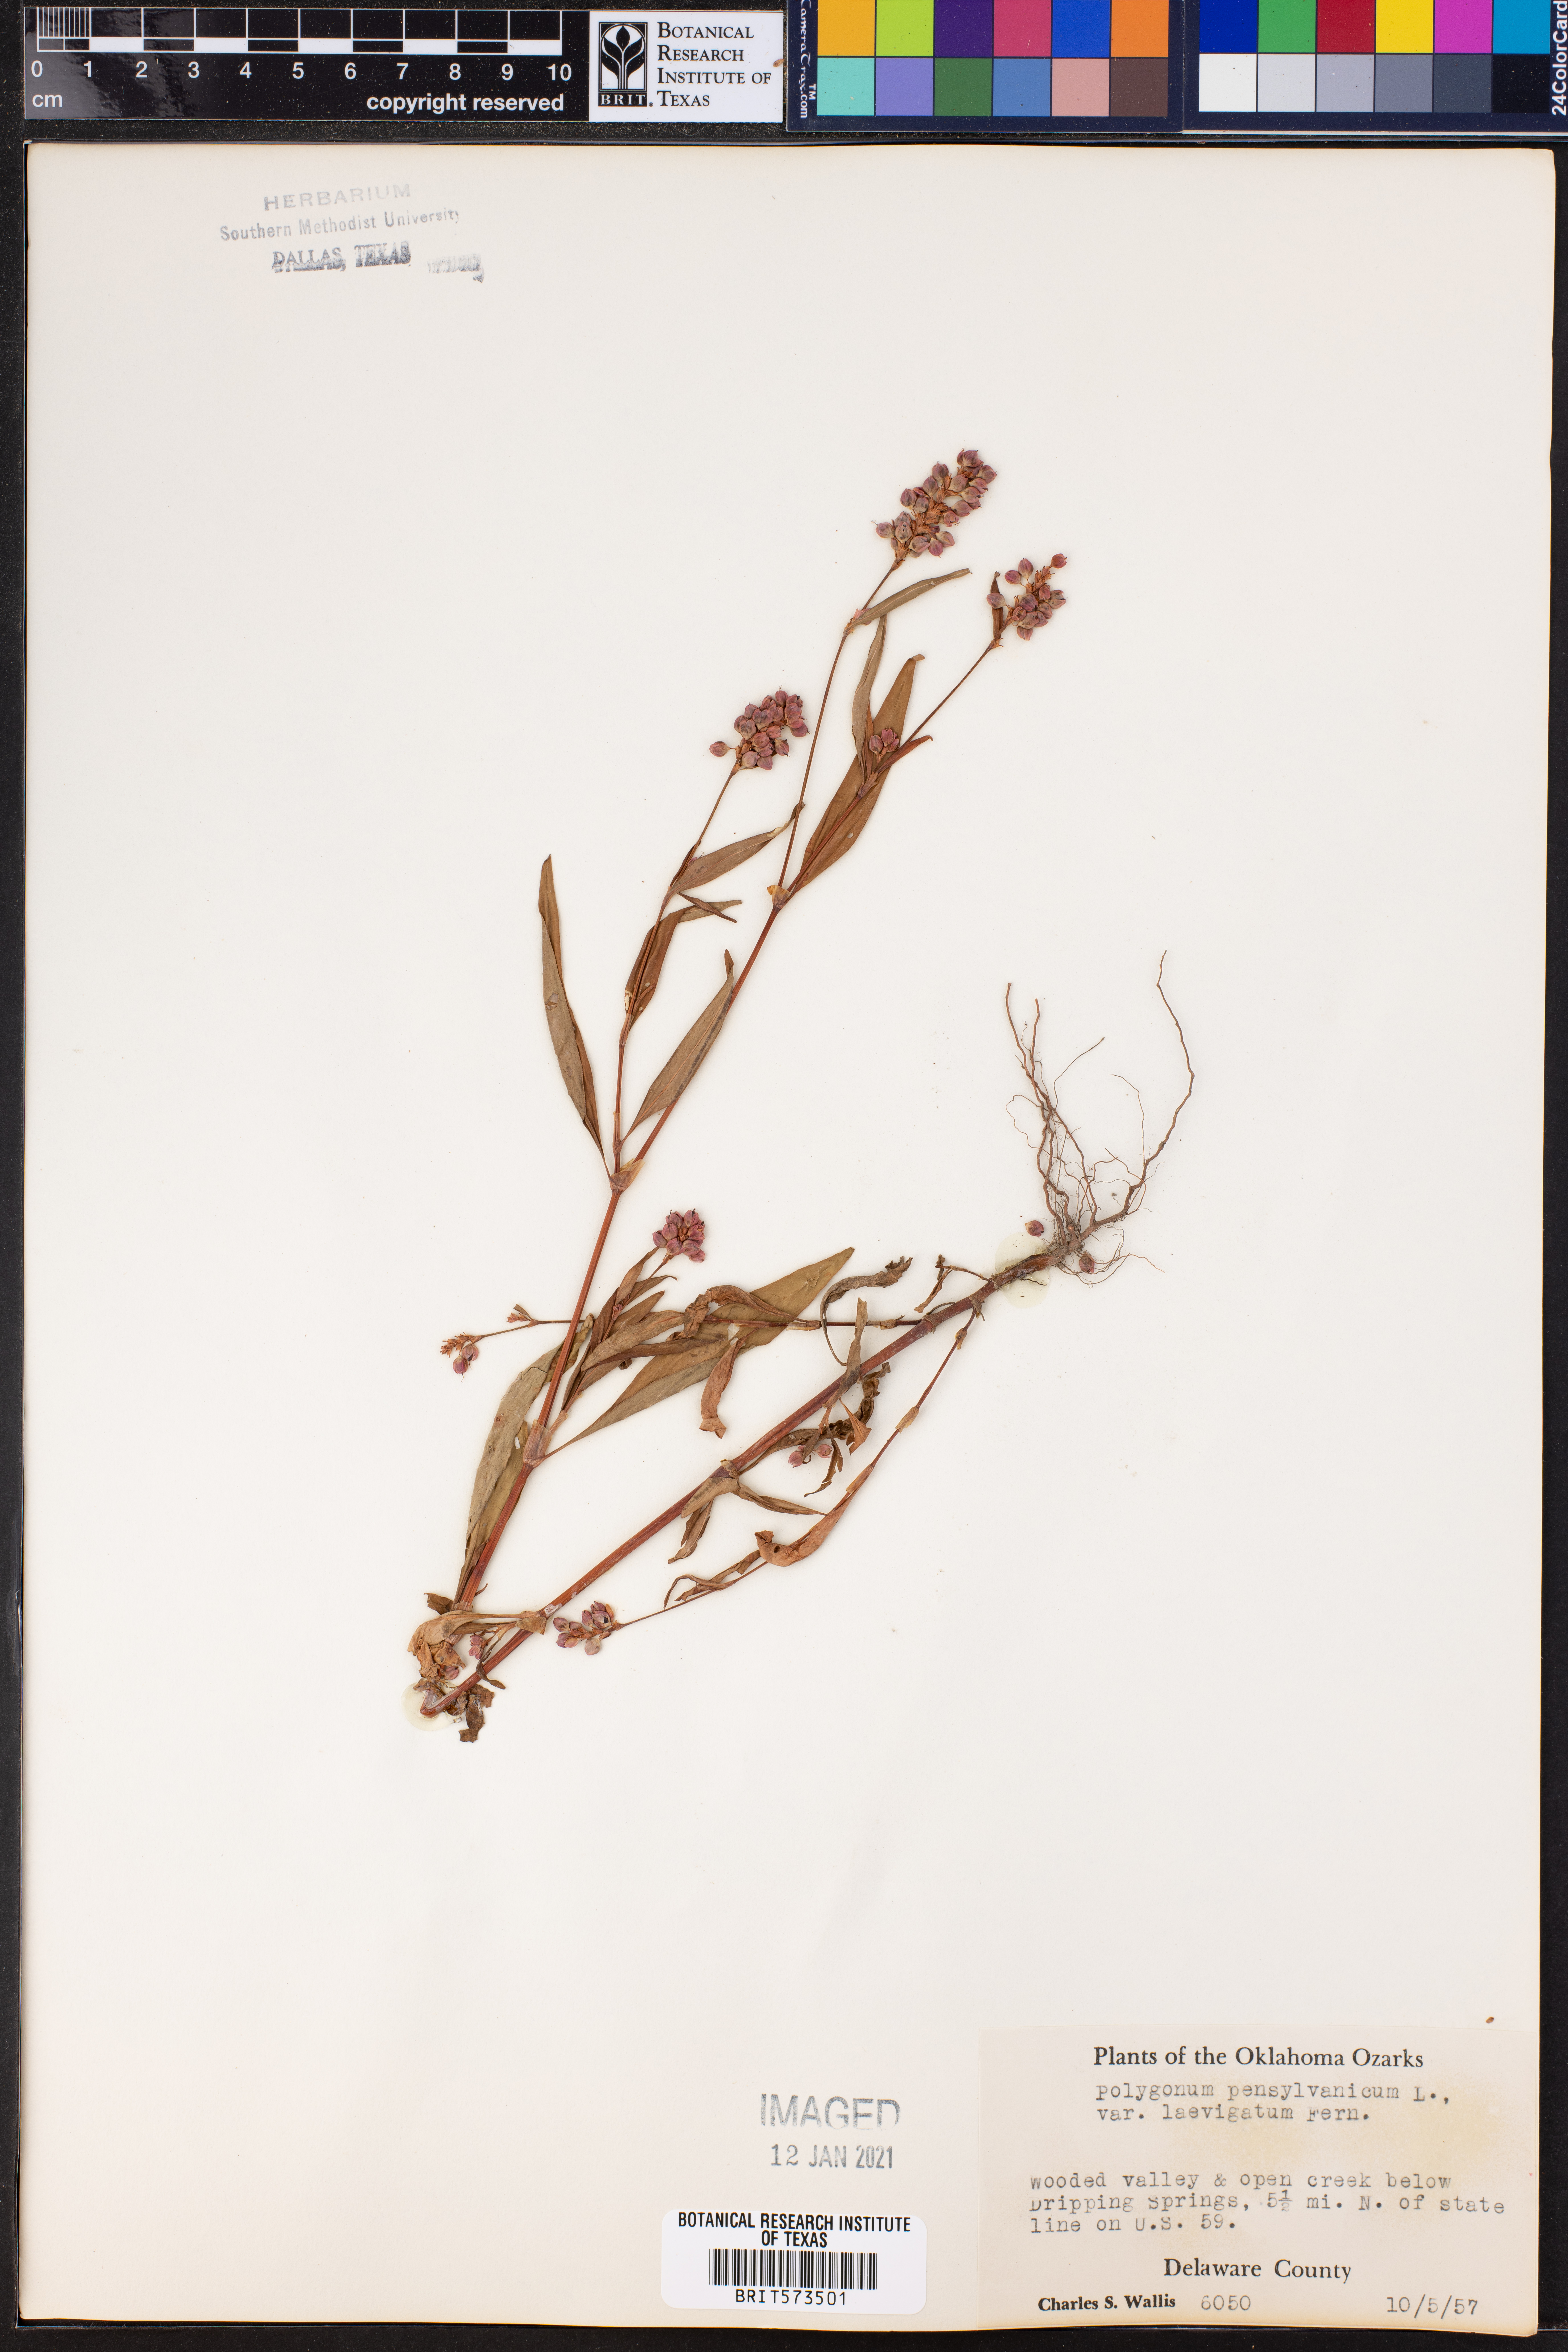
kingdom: Plantae
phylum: Tracheophyta
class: Magnoliopsida
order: Caryophyllales
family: Polygonaceae
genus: Persicaria
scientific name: Persicaria pensylvanica
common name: Pinkweed
